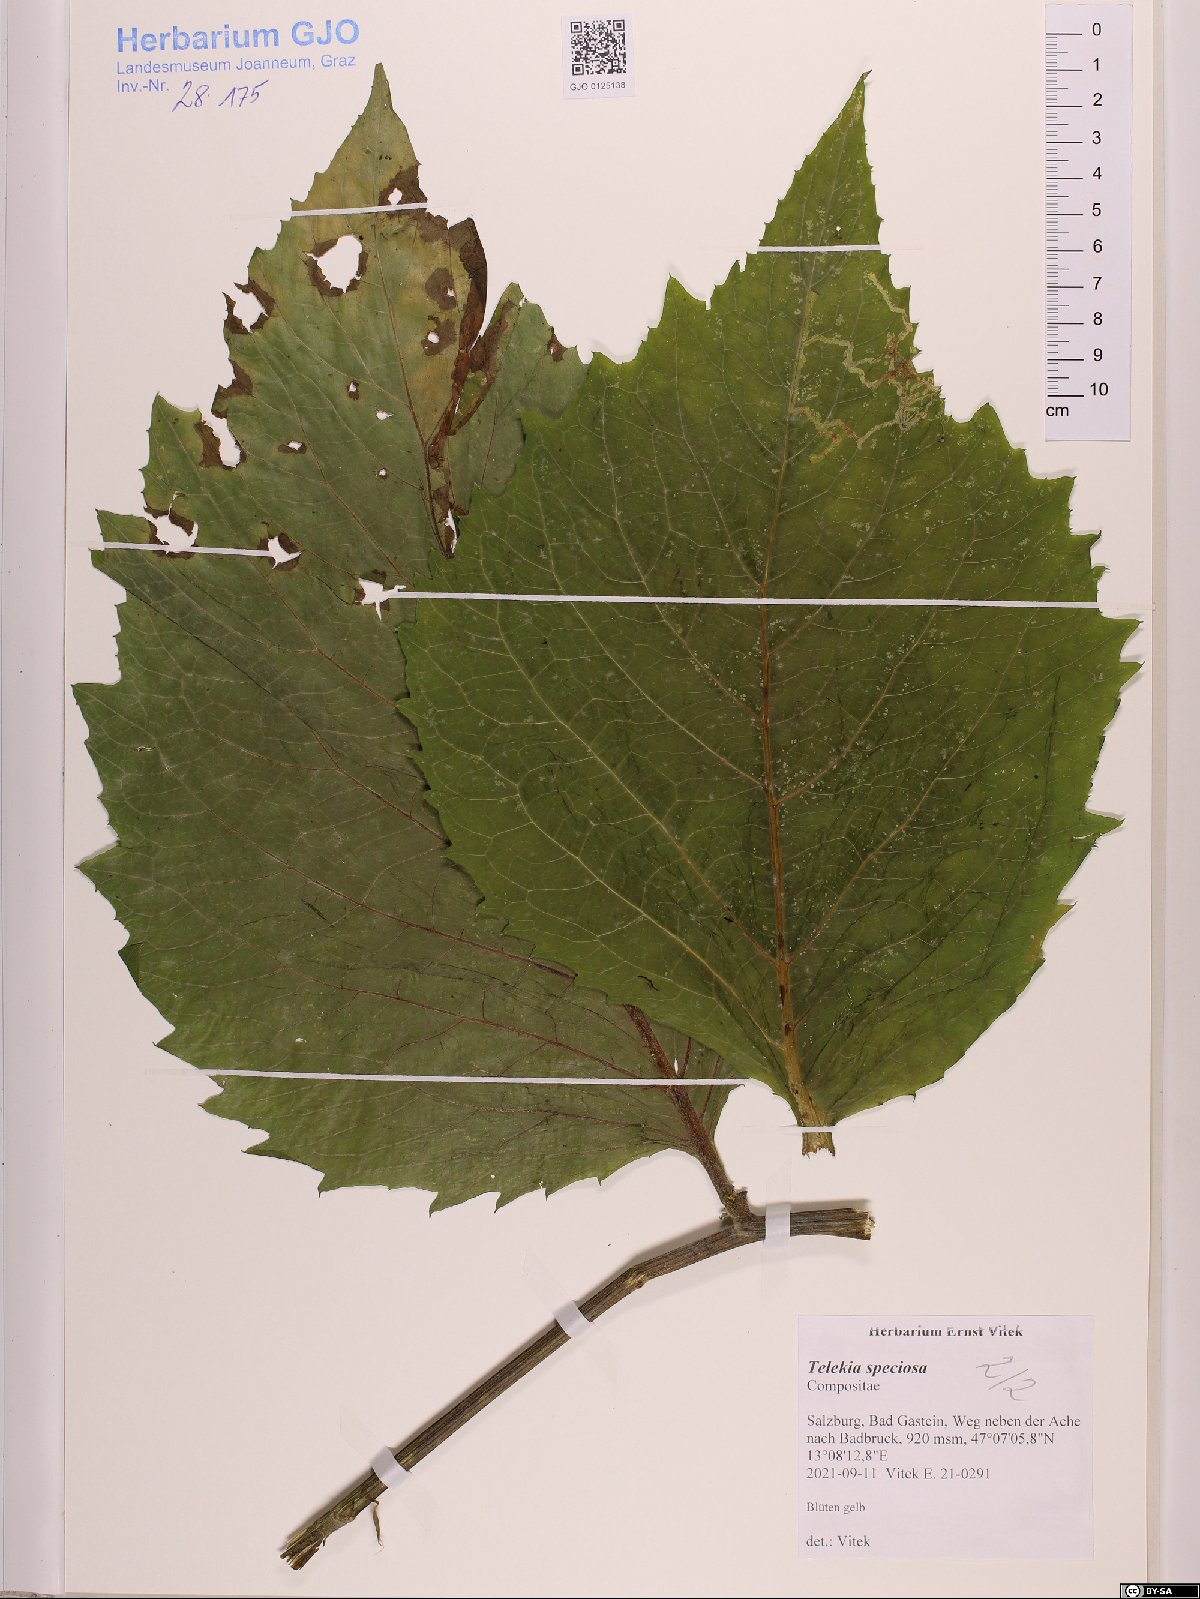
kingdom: Plantae
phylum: Tracheophyta
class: Magnoliopsida
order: Asterales
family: Asteraceae
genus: Telekia
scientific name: Telekia speciosa
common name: Yellow oxeye
